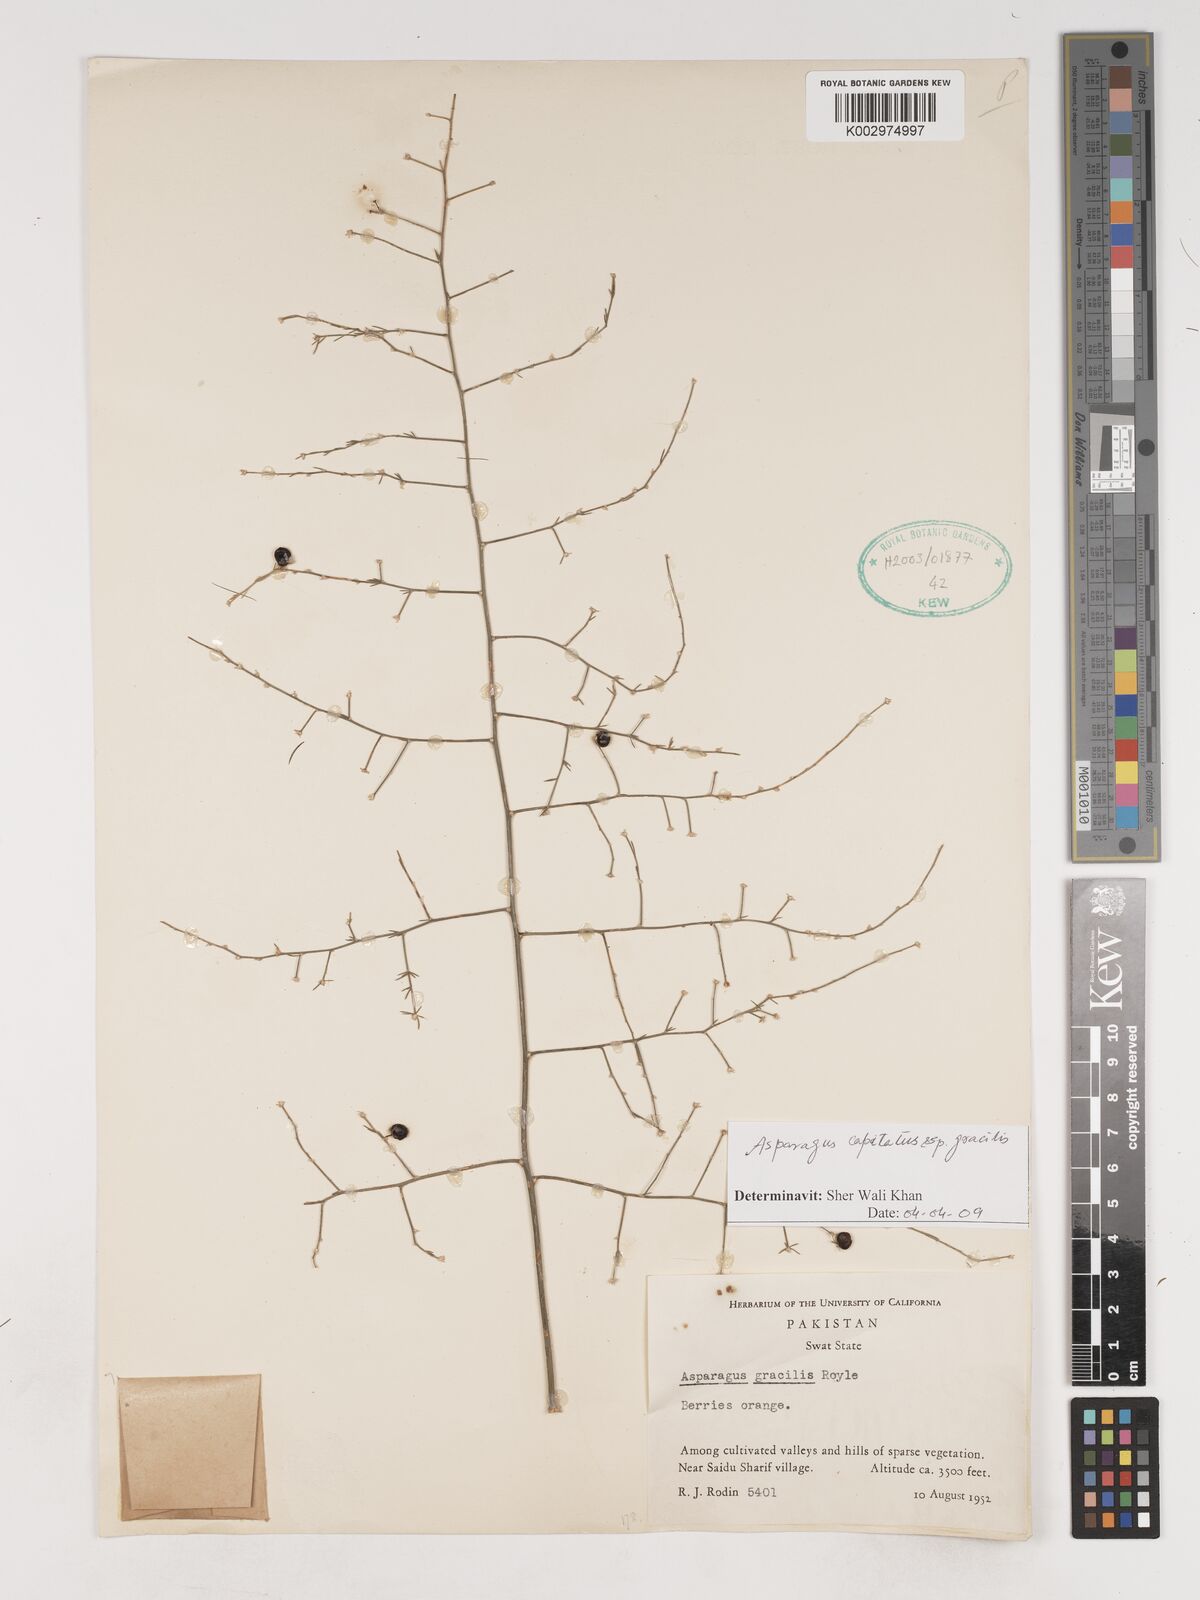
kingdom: Plantae
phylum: Tracheophyta
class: Liliopsida
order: Asparagales
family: Asparagaceae
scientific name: Asparagaceae
